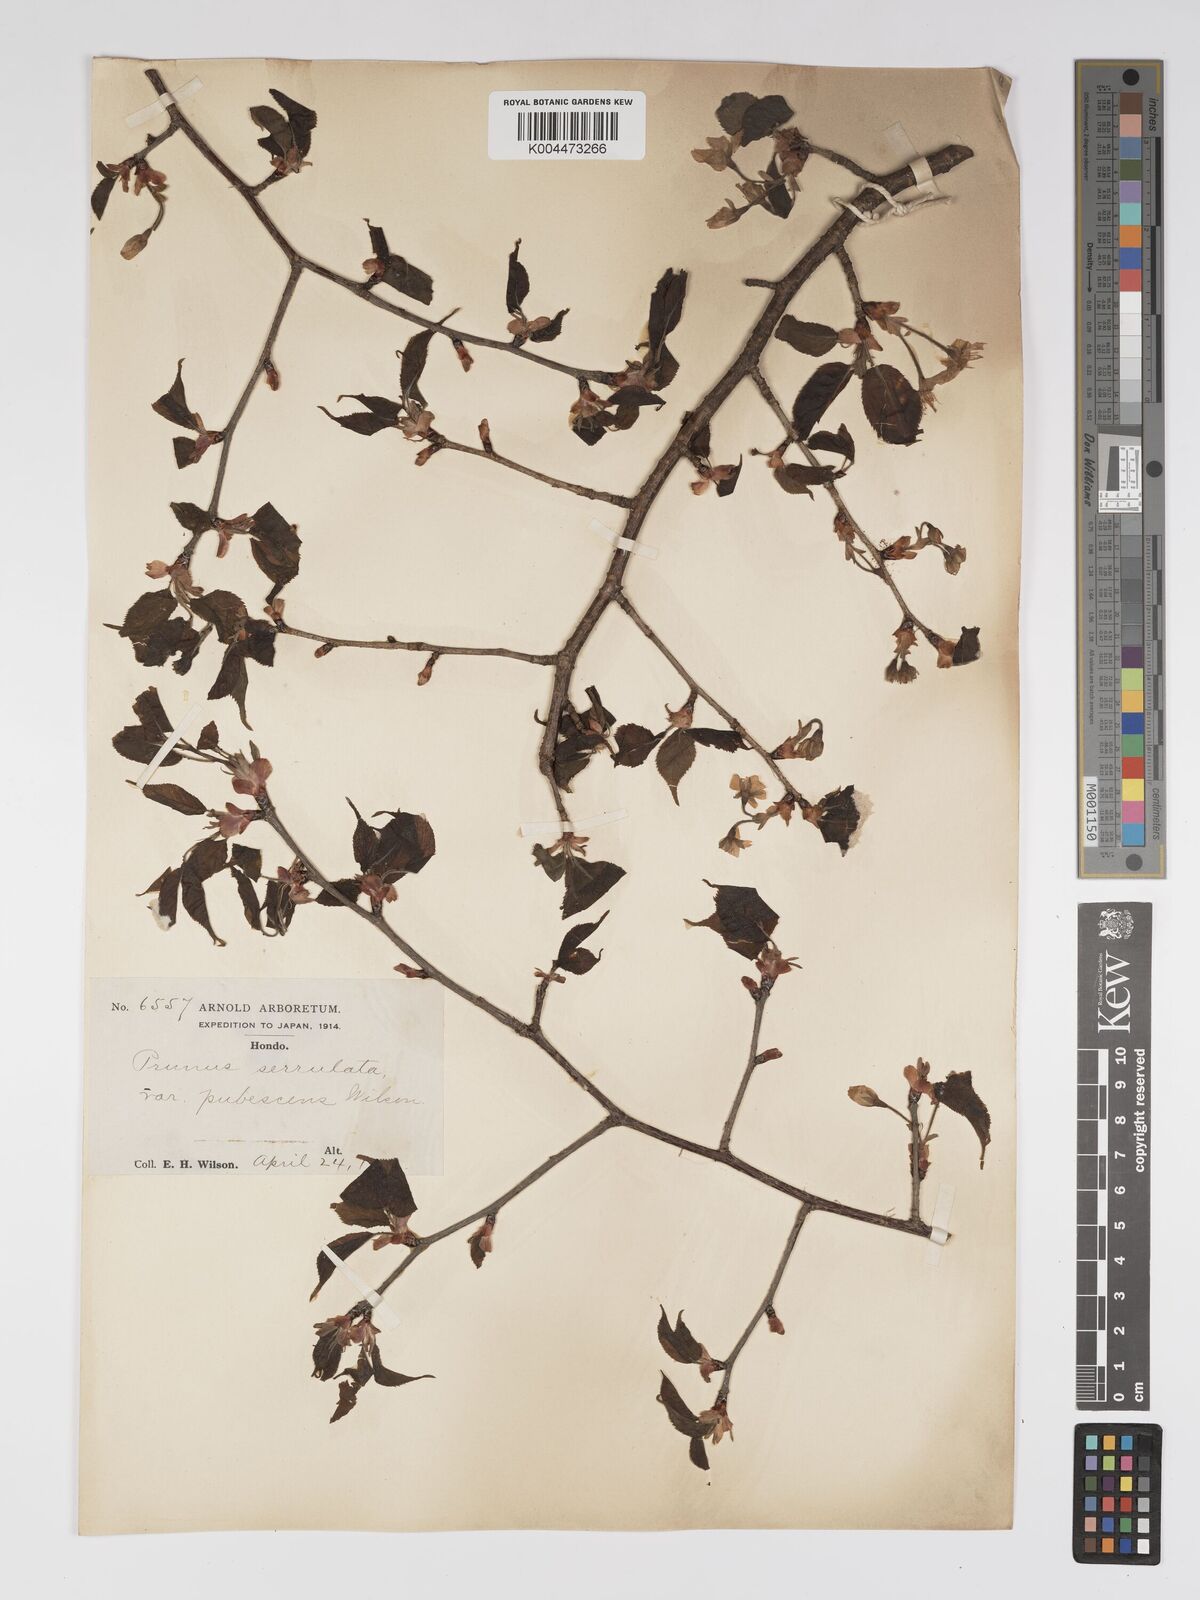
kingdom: Plantae
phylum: Tracheophyta
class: Magnoliopsida
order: Rosales
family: Rosaceae
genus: Prunus
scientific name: Prunus serrulata
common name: Japanese cherry
